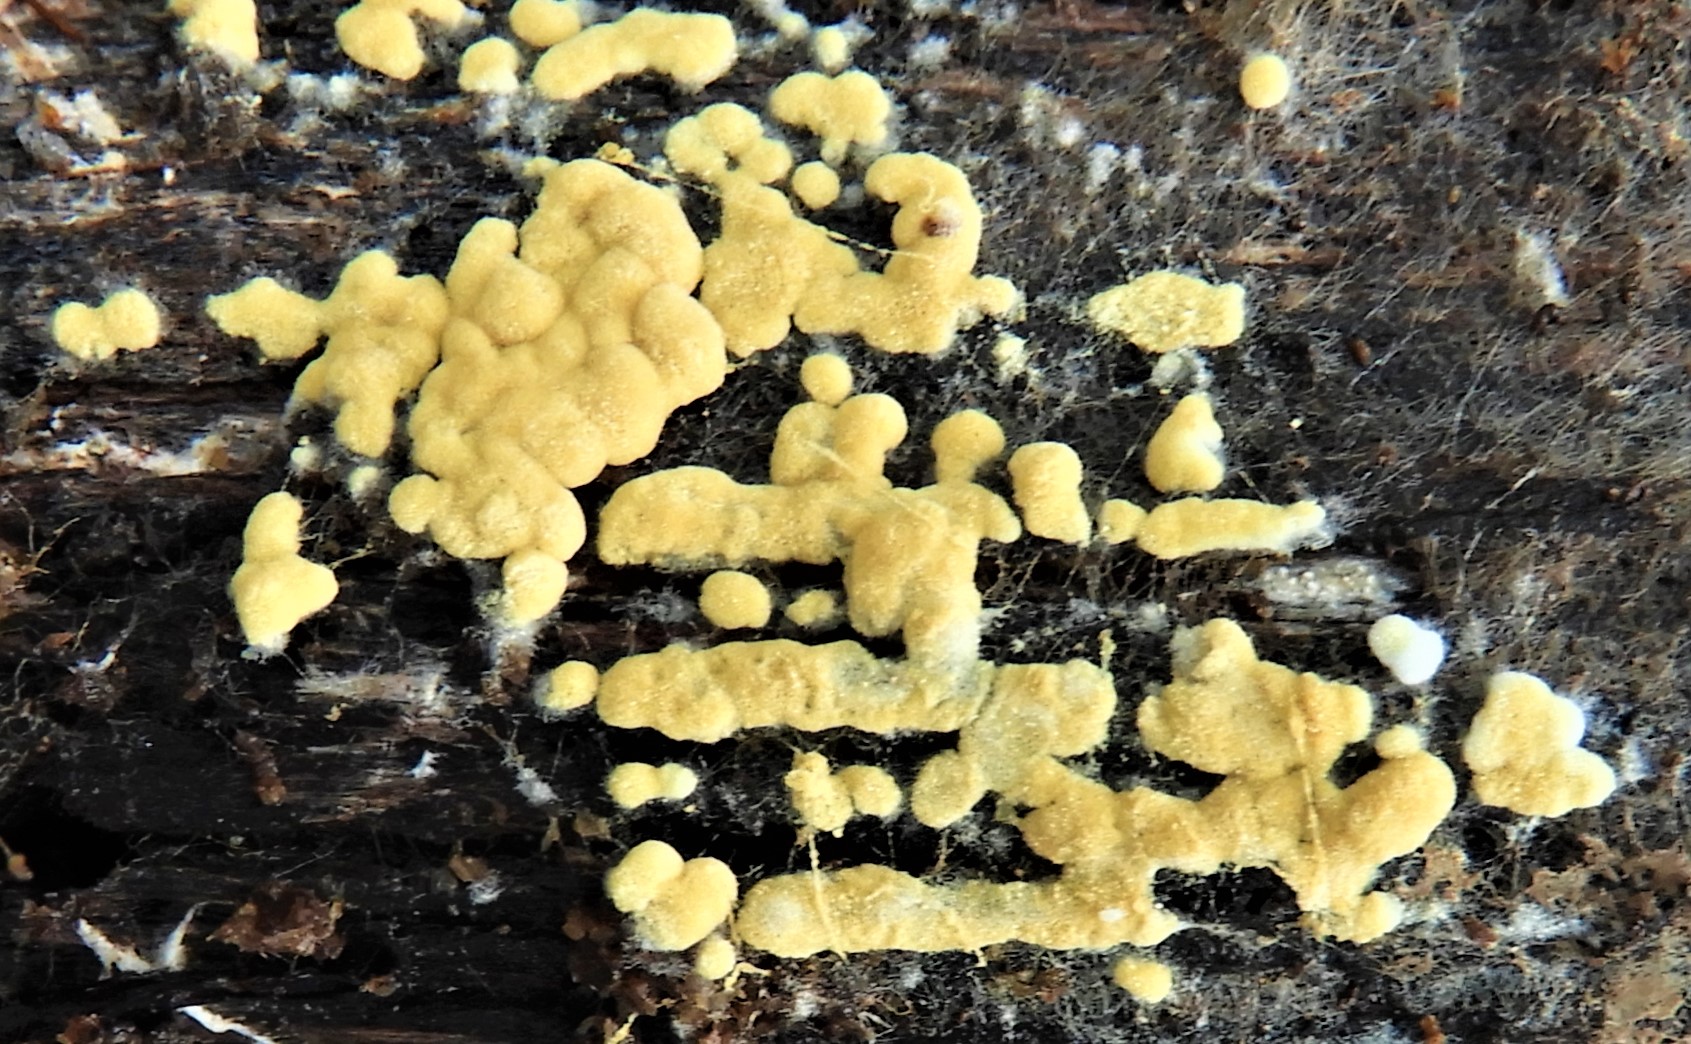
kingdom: Fungi
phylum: Basidiomycota
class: Agaricomycetes
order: Cantharellales
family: Botryobasidiaceae
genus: Botryobasidium
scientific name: Botryobasidium aureum
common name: gylden spindhinde
